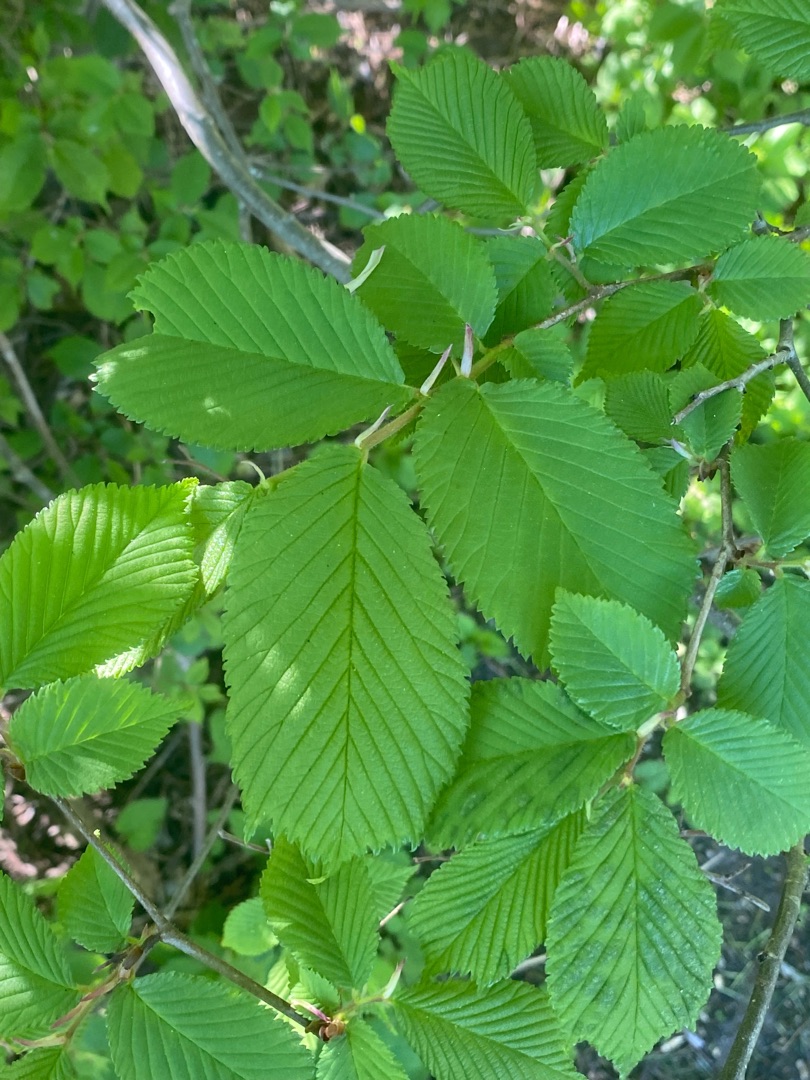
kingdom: Plantae
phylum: Tracheophyta
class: Magnoliopsida
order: Rosales
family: Ulmaceae
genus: Ulmus
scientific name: Ulmus glabra
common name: Skov-elm/storbladet elm
